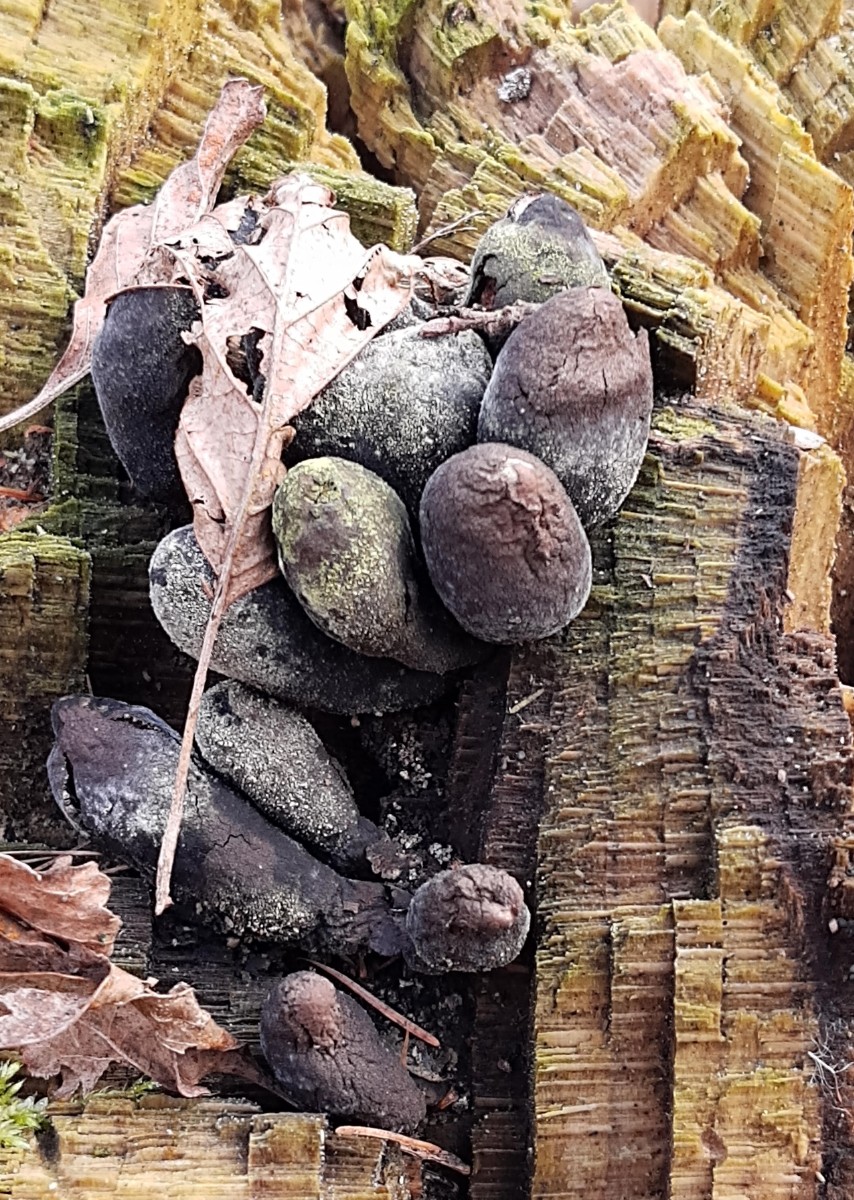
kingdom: Fungi
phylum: Ascomycota
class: Sordariomycetes
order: Xylariales
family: Xylariaceae
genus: Xylaria
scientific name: Xylaria polymorpha
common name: kølle-stødsvamp
